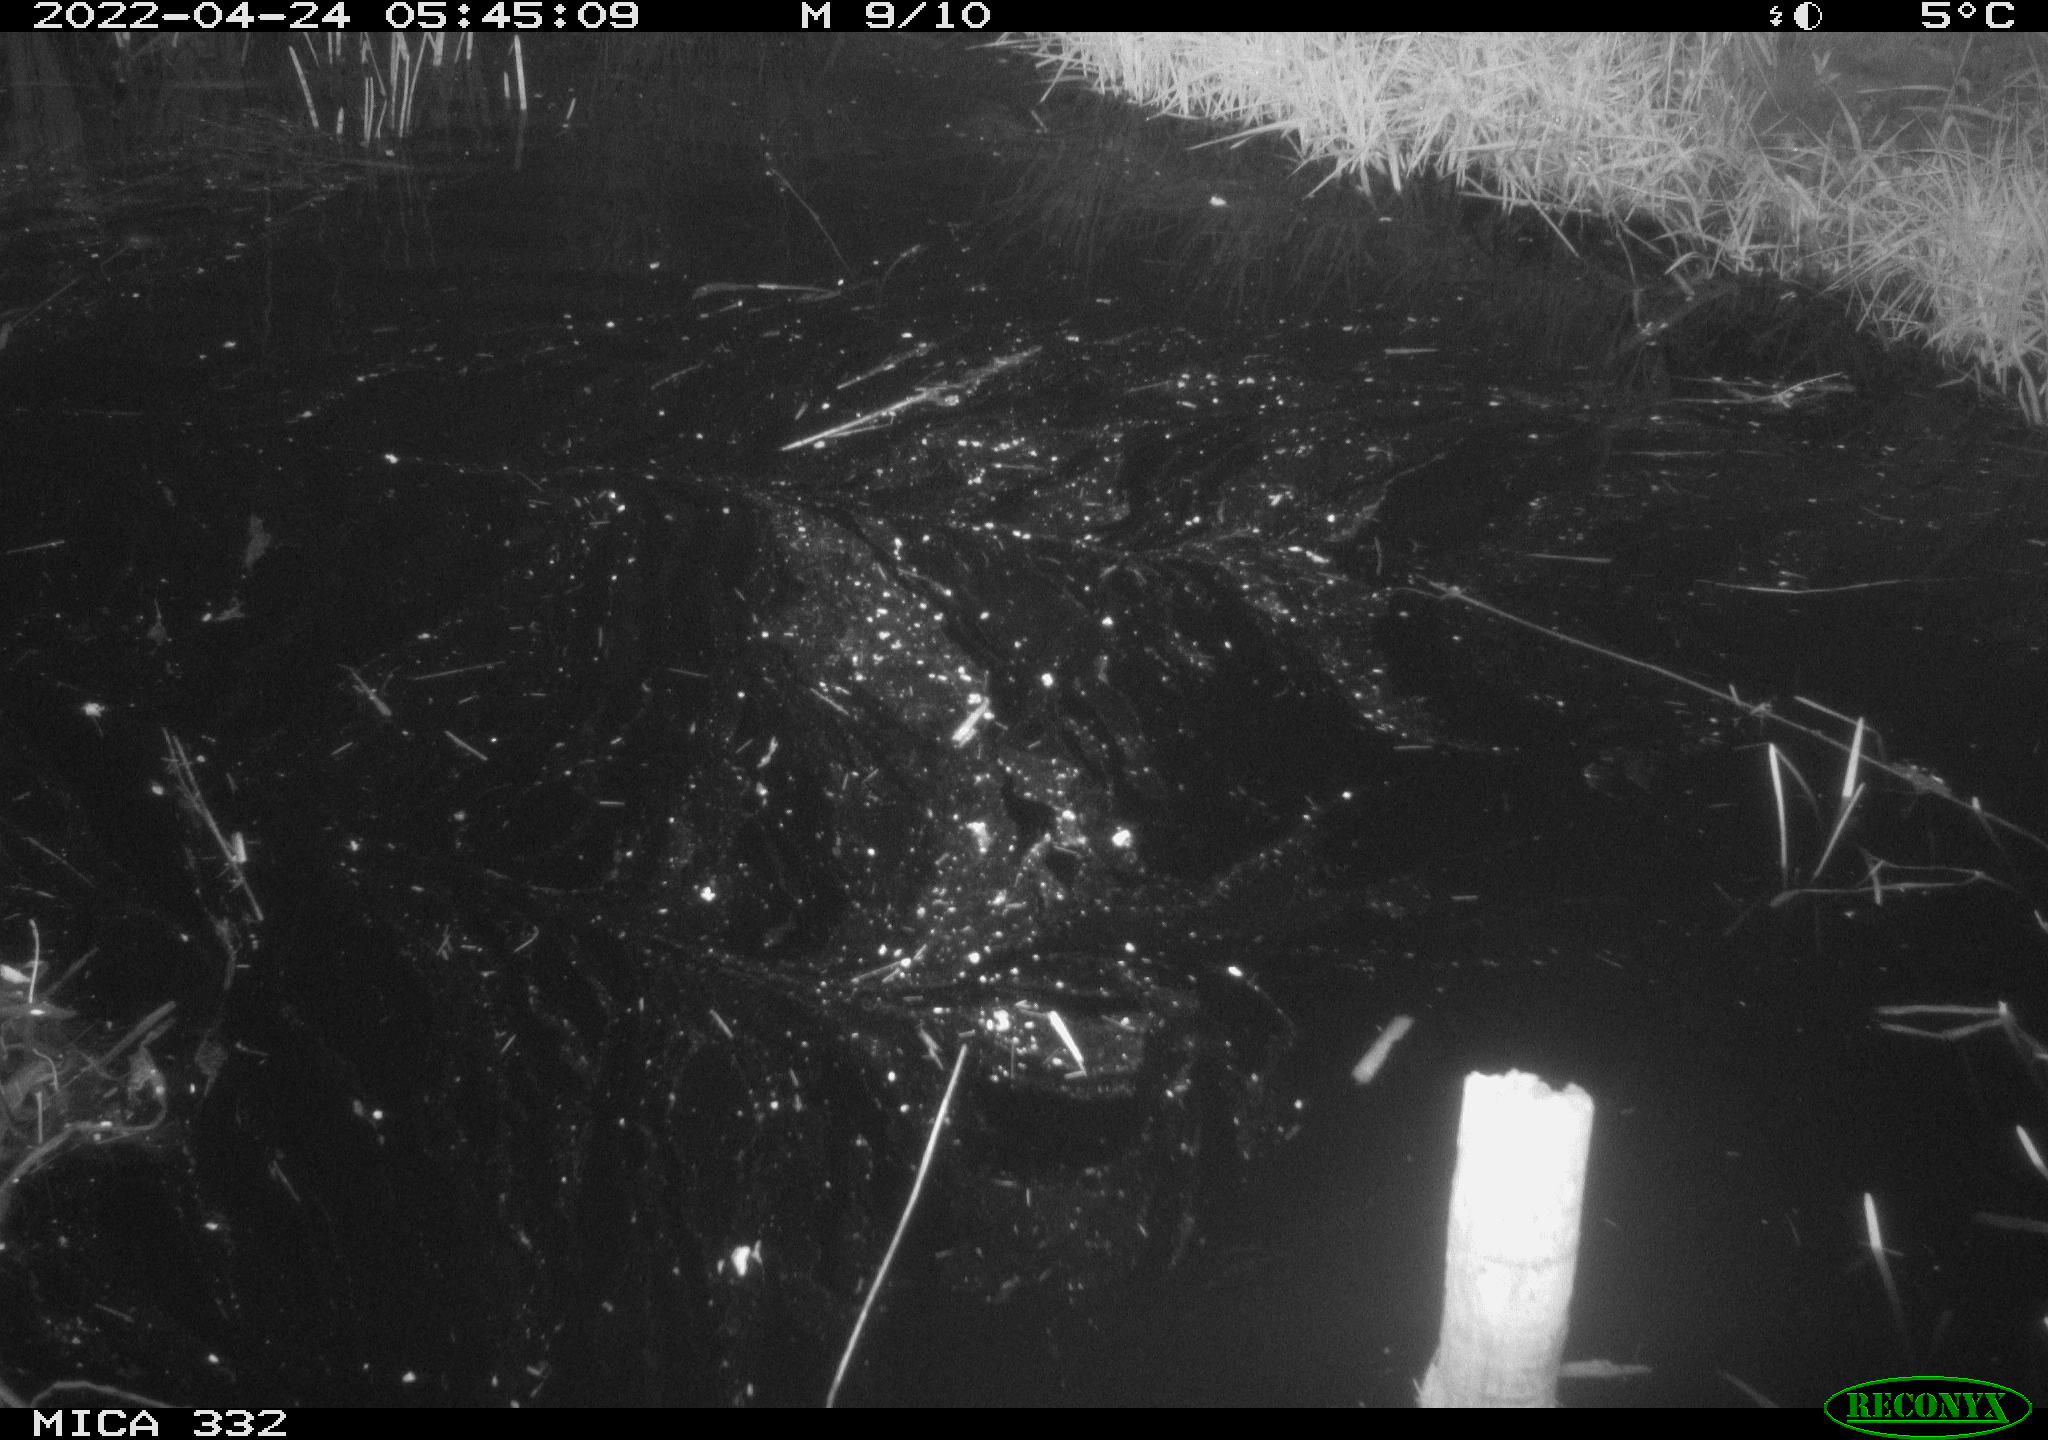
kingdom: Animalia
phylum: Chordata
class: Aves
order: Gruiformes
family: Rallidae
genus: Gallinula
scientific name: Gallinula chloropus
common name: Common moorhen
